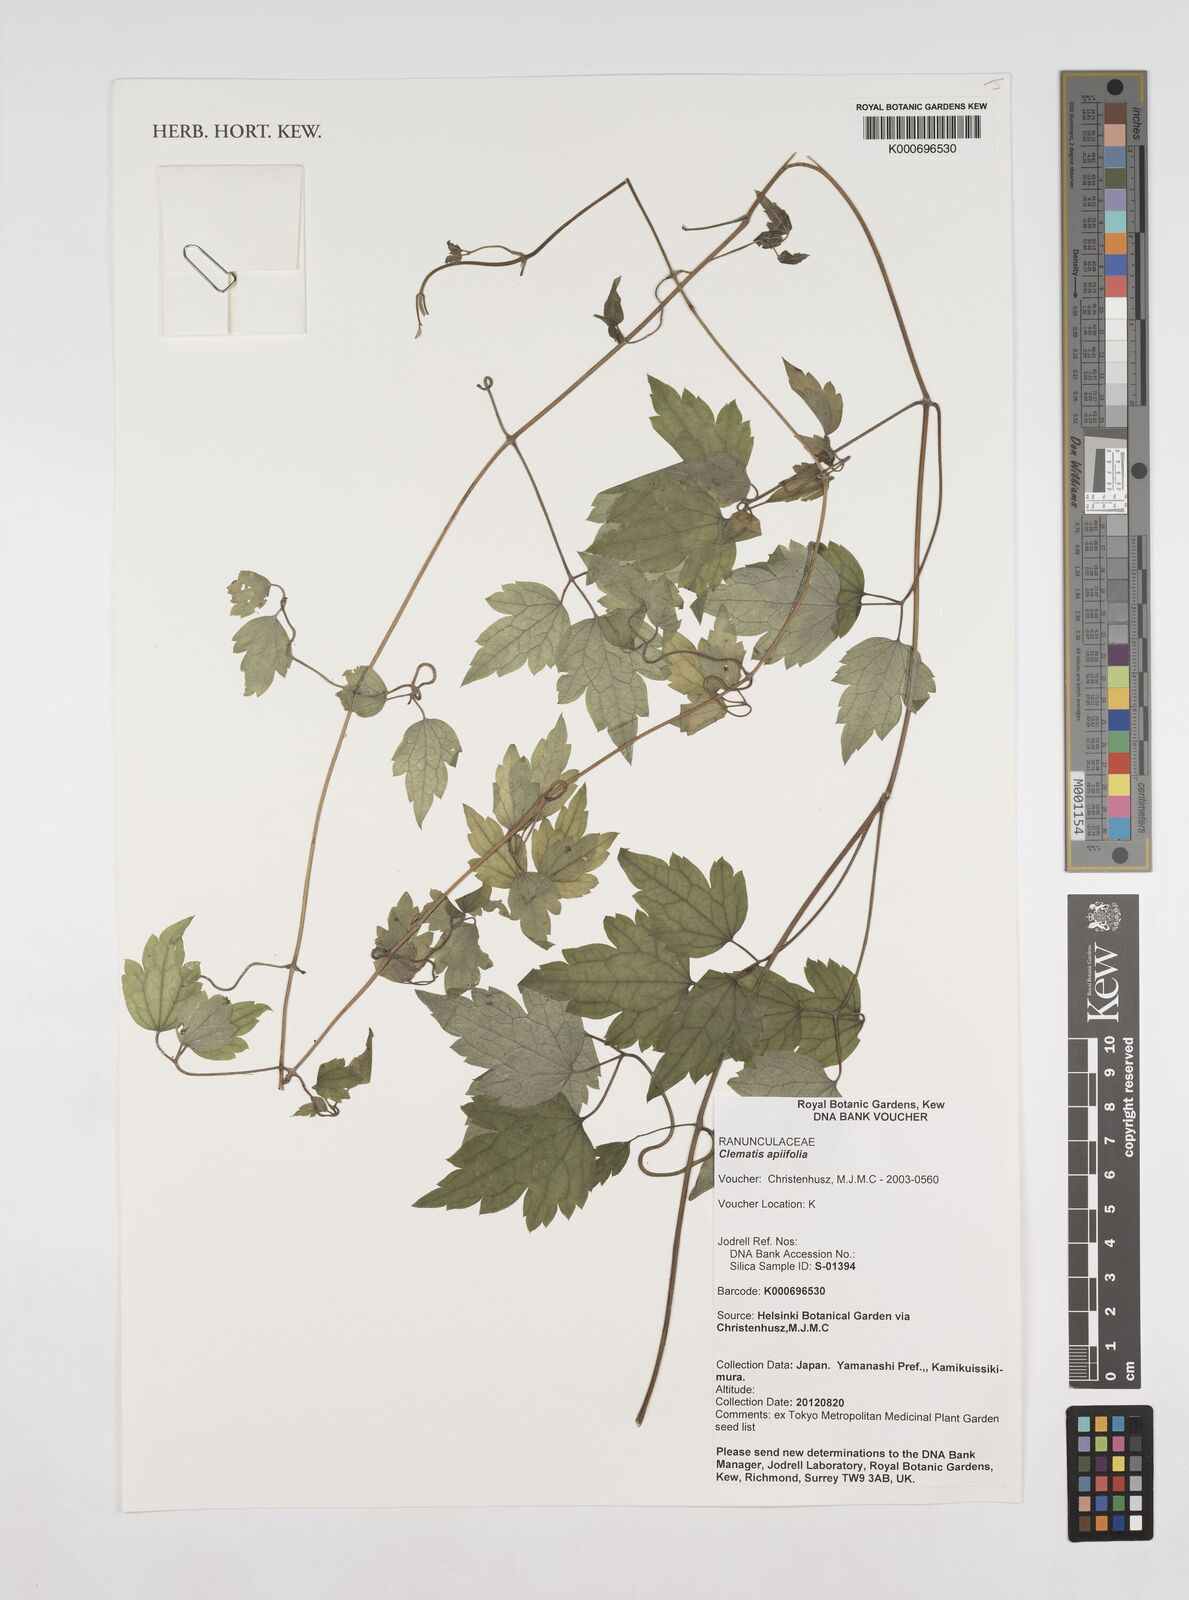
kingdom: Plantae
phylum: Tracheophyta
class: Magnoliopsida
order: Ranunculales
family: Ranunculaceae
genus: Clematis
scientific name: Clematis apiifolia
